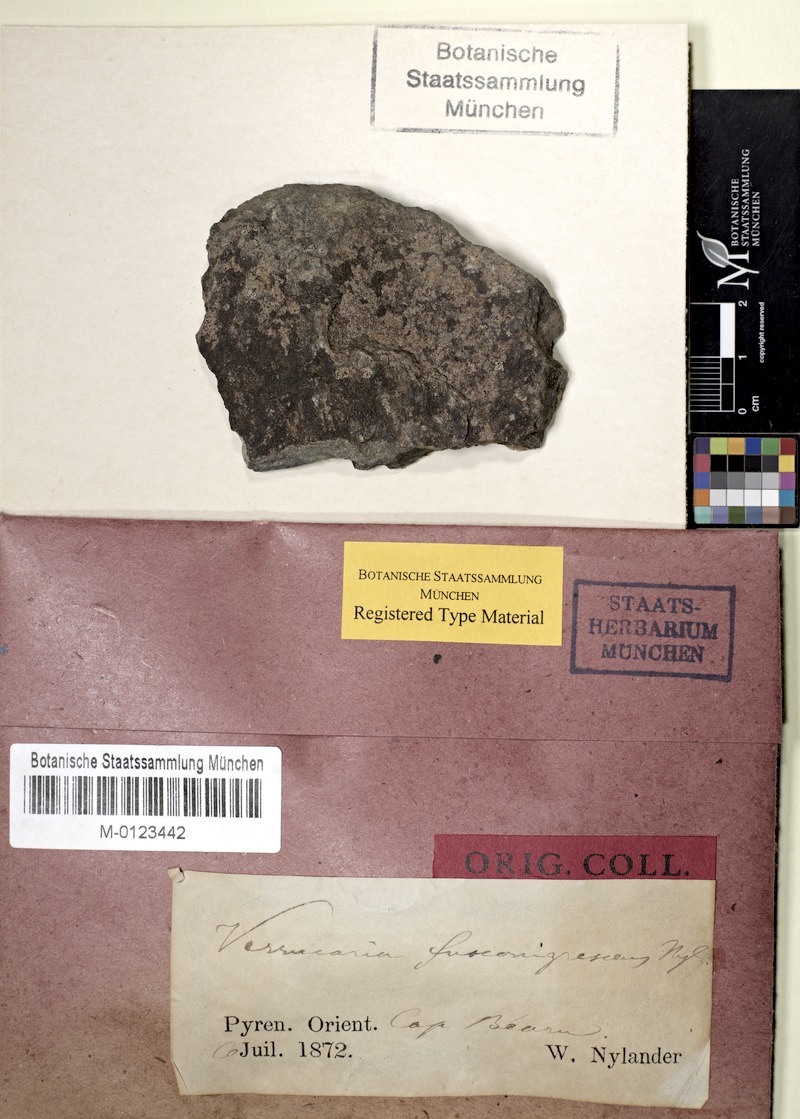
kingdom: Fungi
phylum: Ascomycota
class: Eurotiomycetes
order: Verrucariales
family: Verrucariaceae
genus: Verrucaria
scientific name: Verrucaria fusconigrescens
